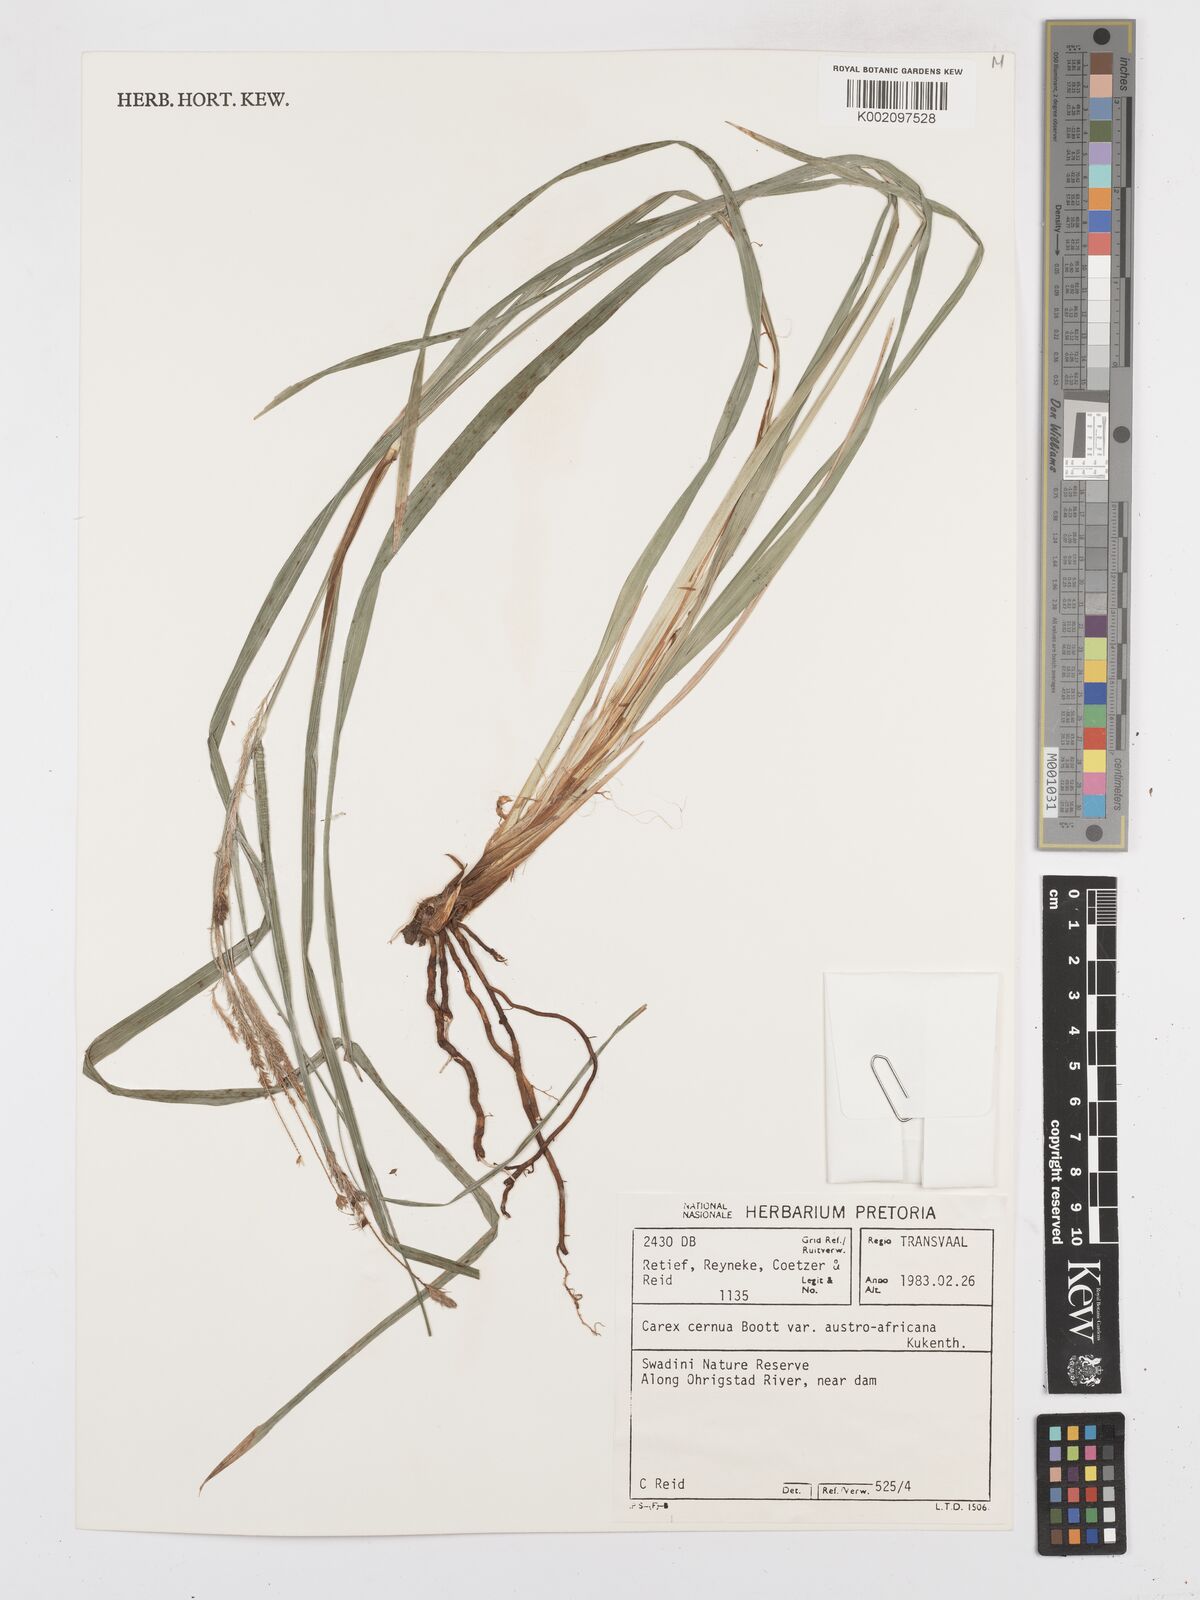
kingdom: Plantae
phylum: Tracheophyta
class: Liliopsida
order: Poales
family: Cyperaceae
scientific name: Cyperaceae
